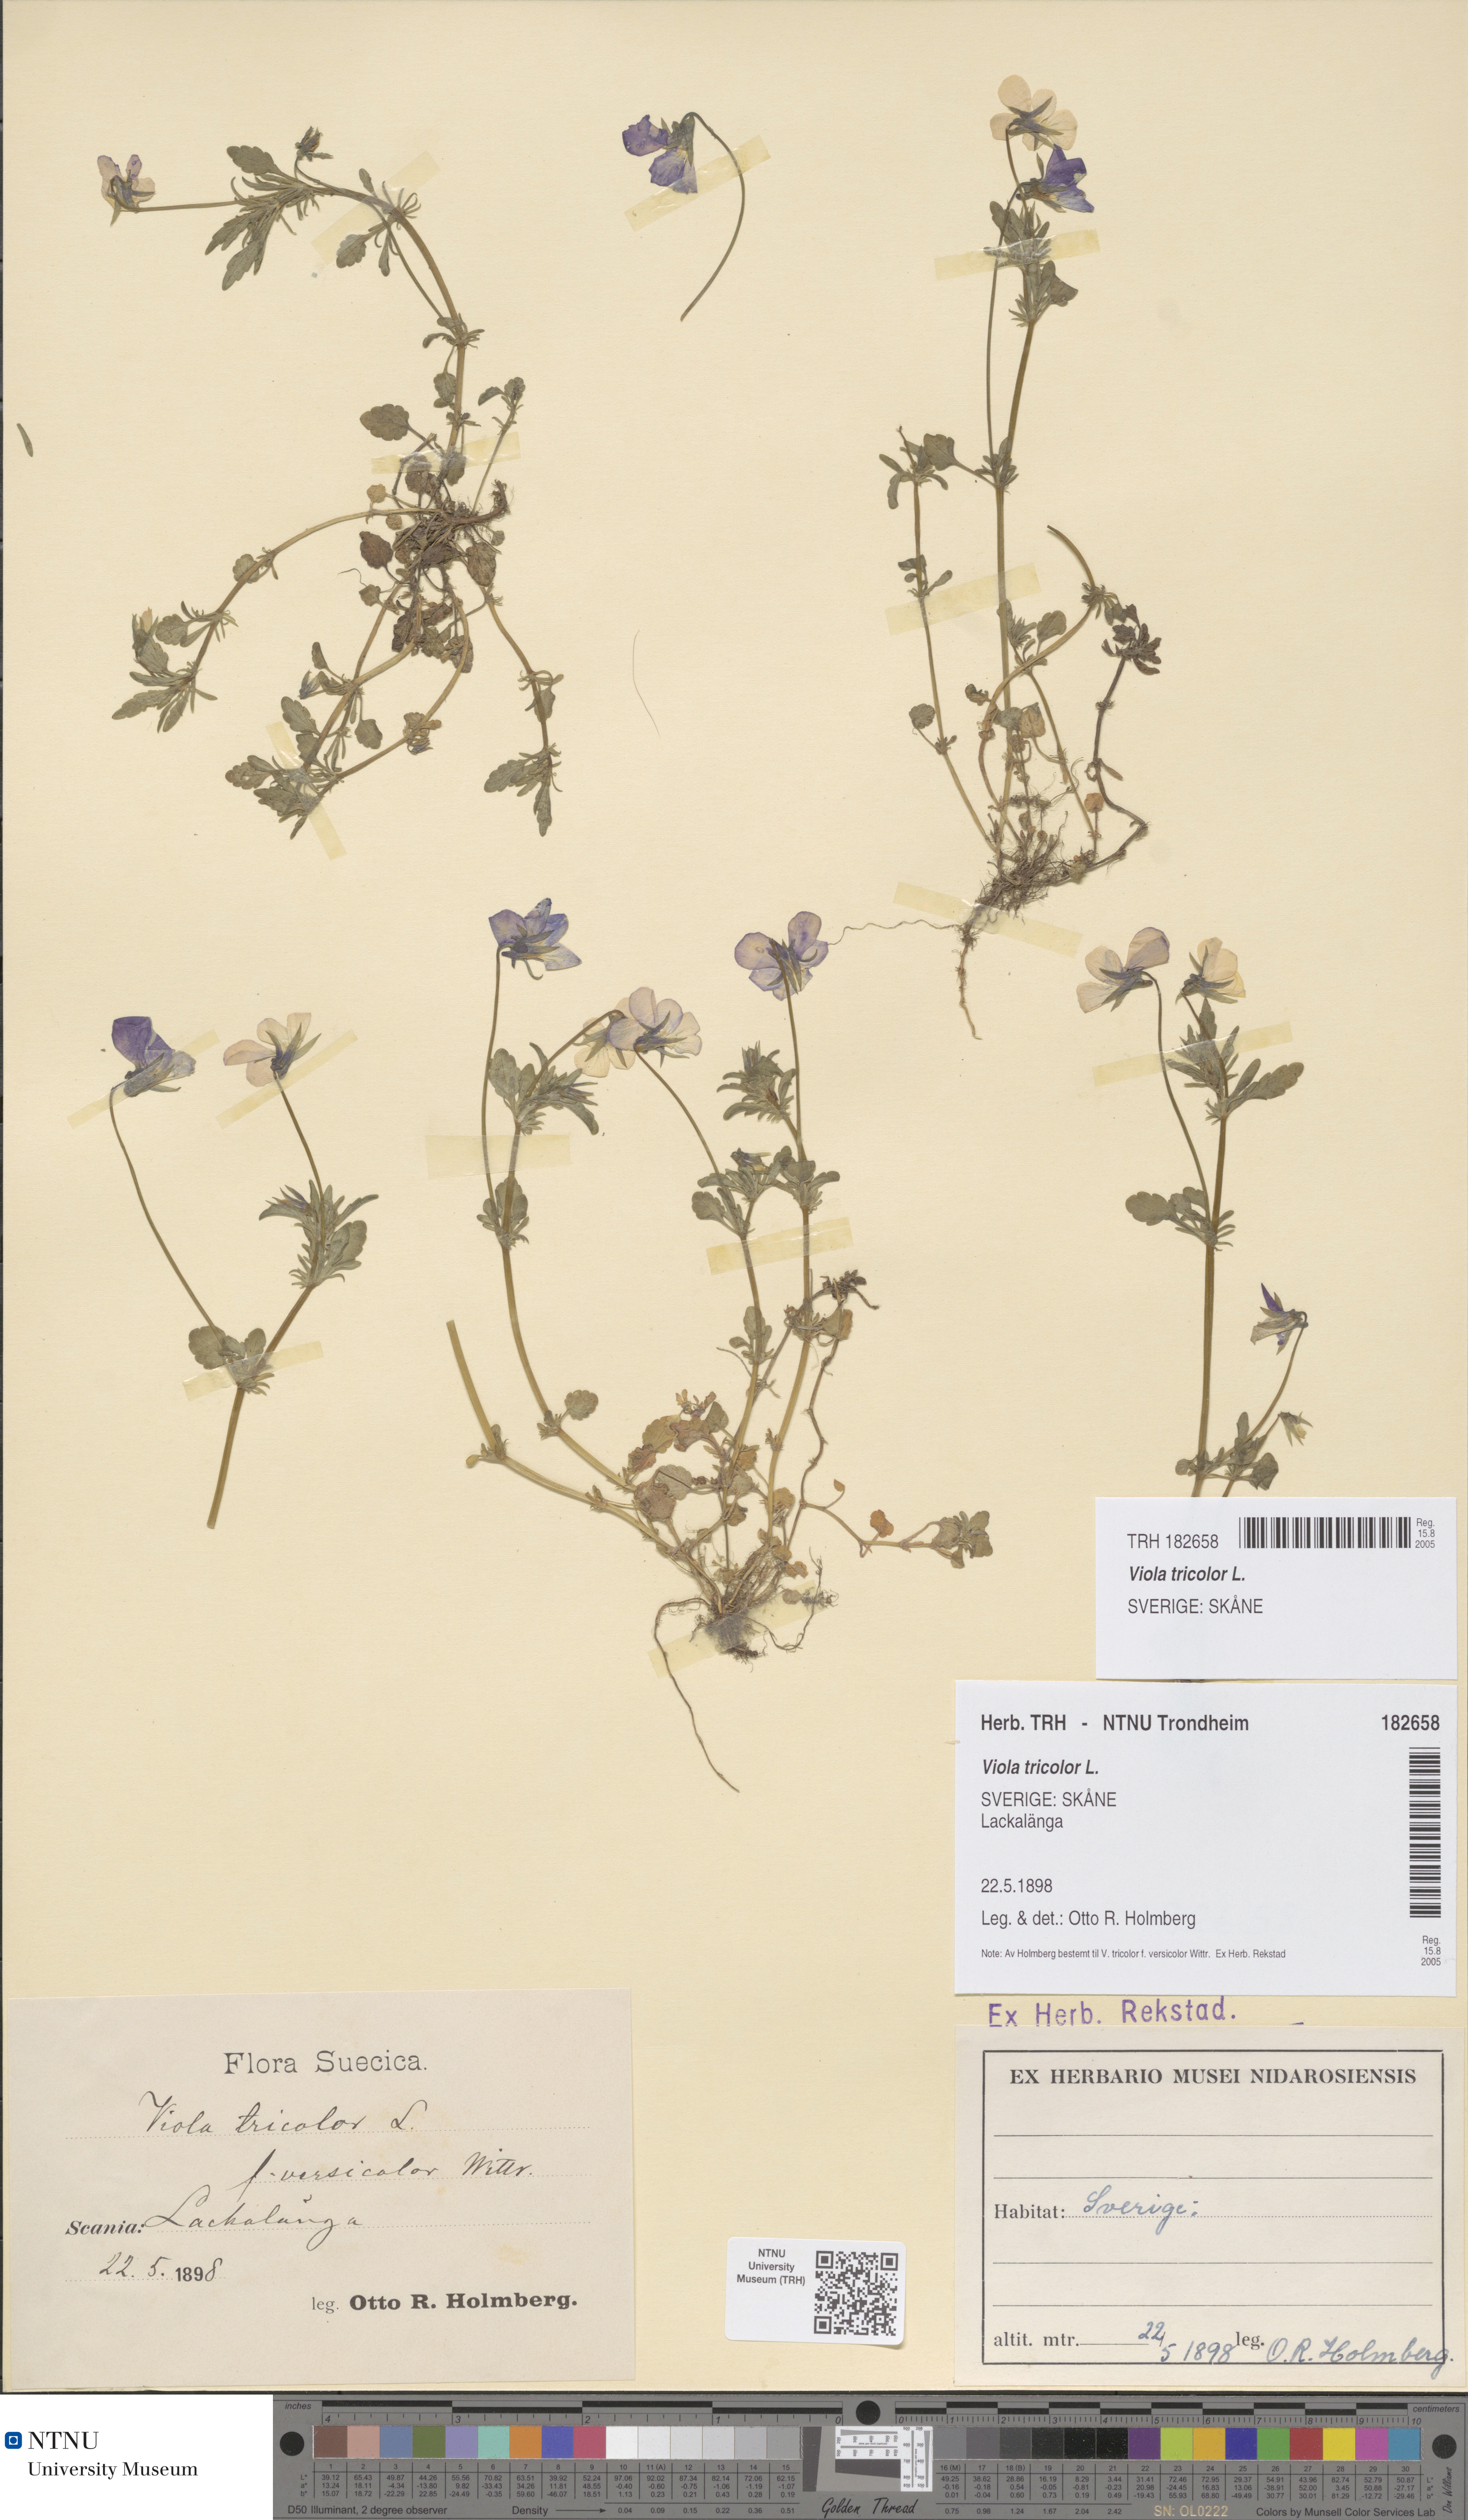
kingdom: Plantae
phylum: Tracheophyta
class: Magnoliopsida
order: Malpighiales
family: Violaceae
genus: Viola
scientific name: Viola tricolor
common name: Pansy
